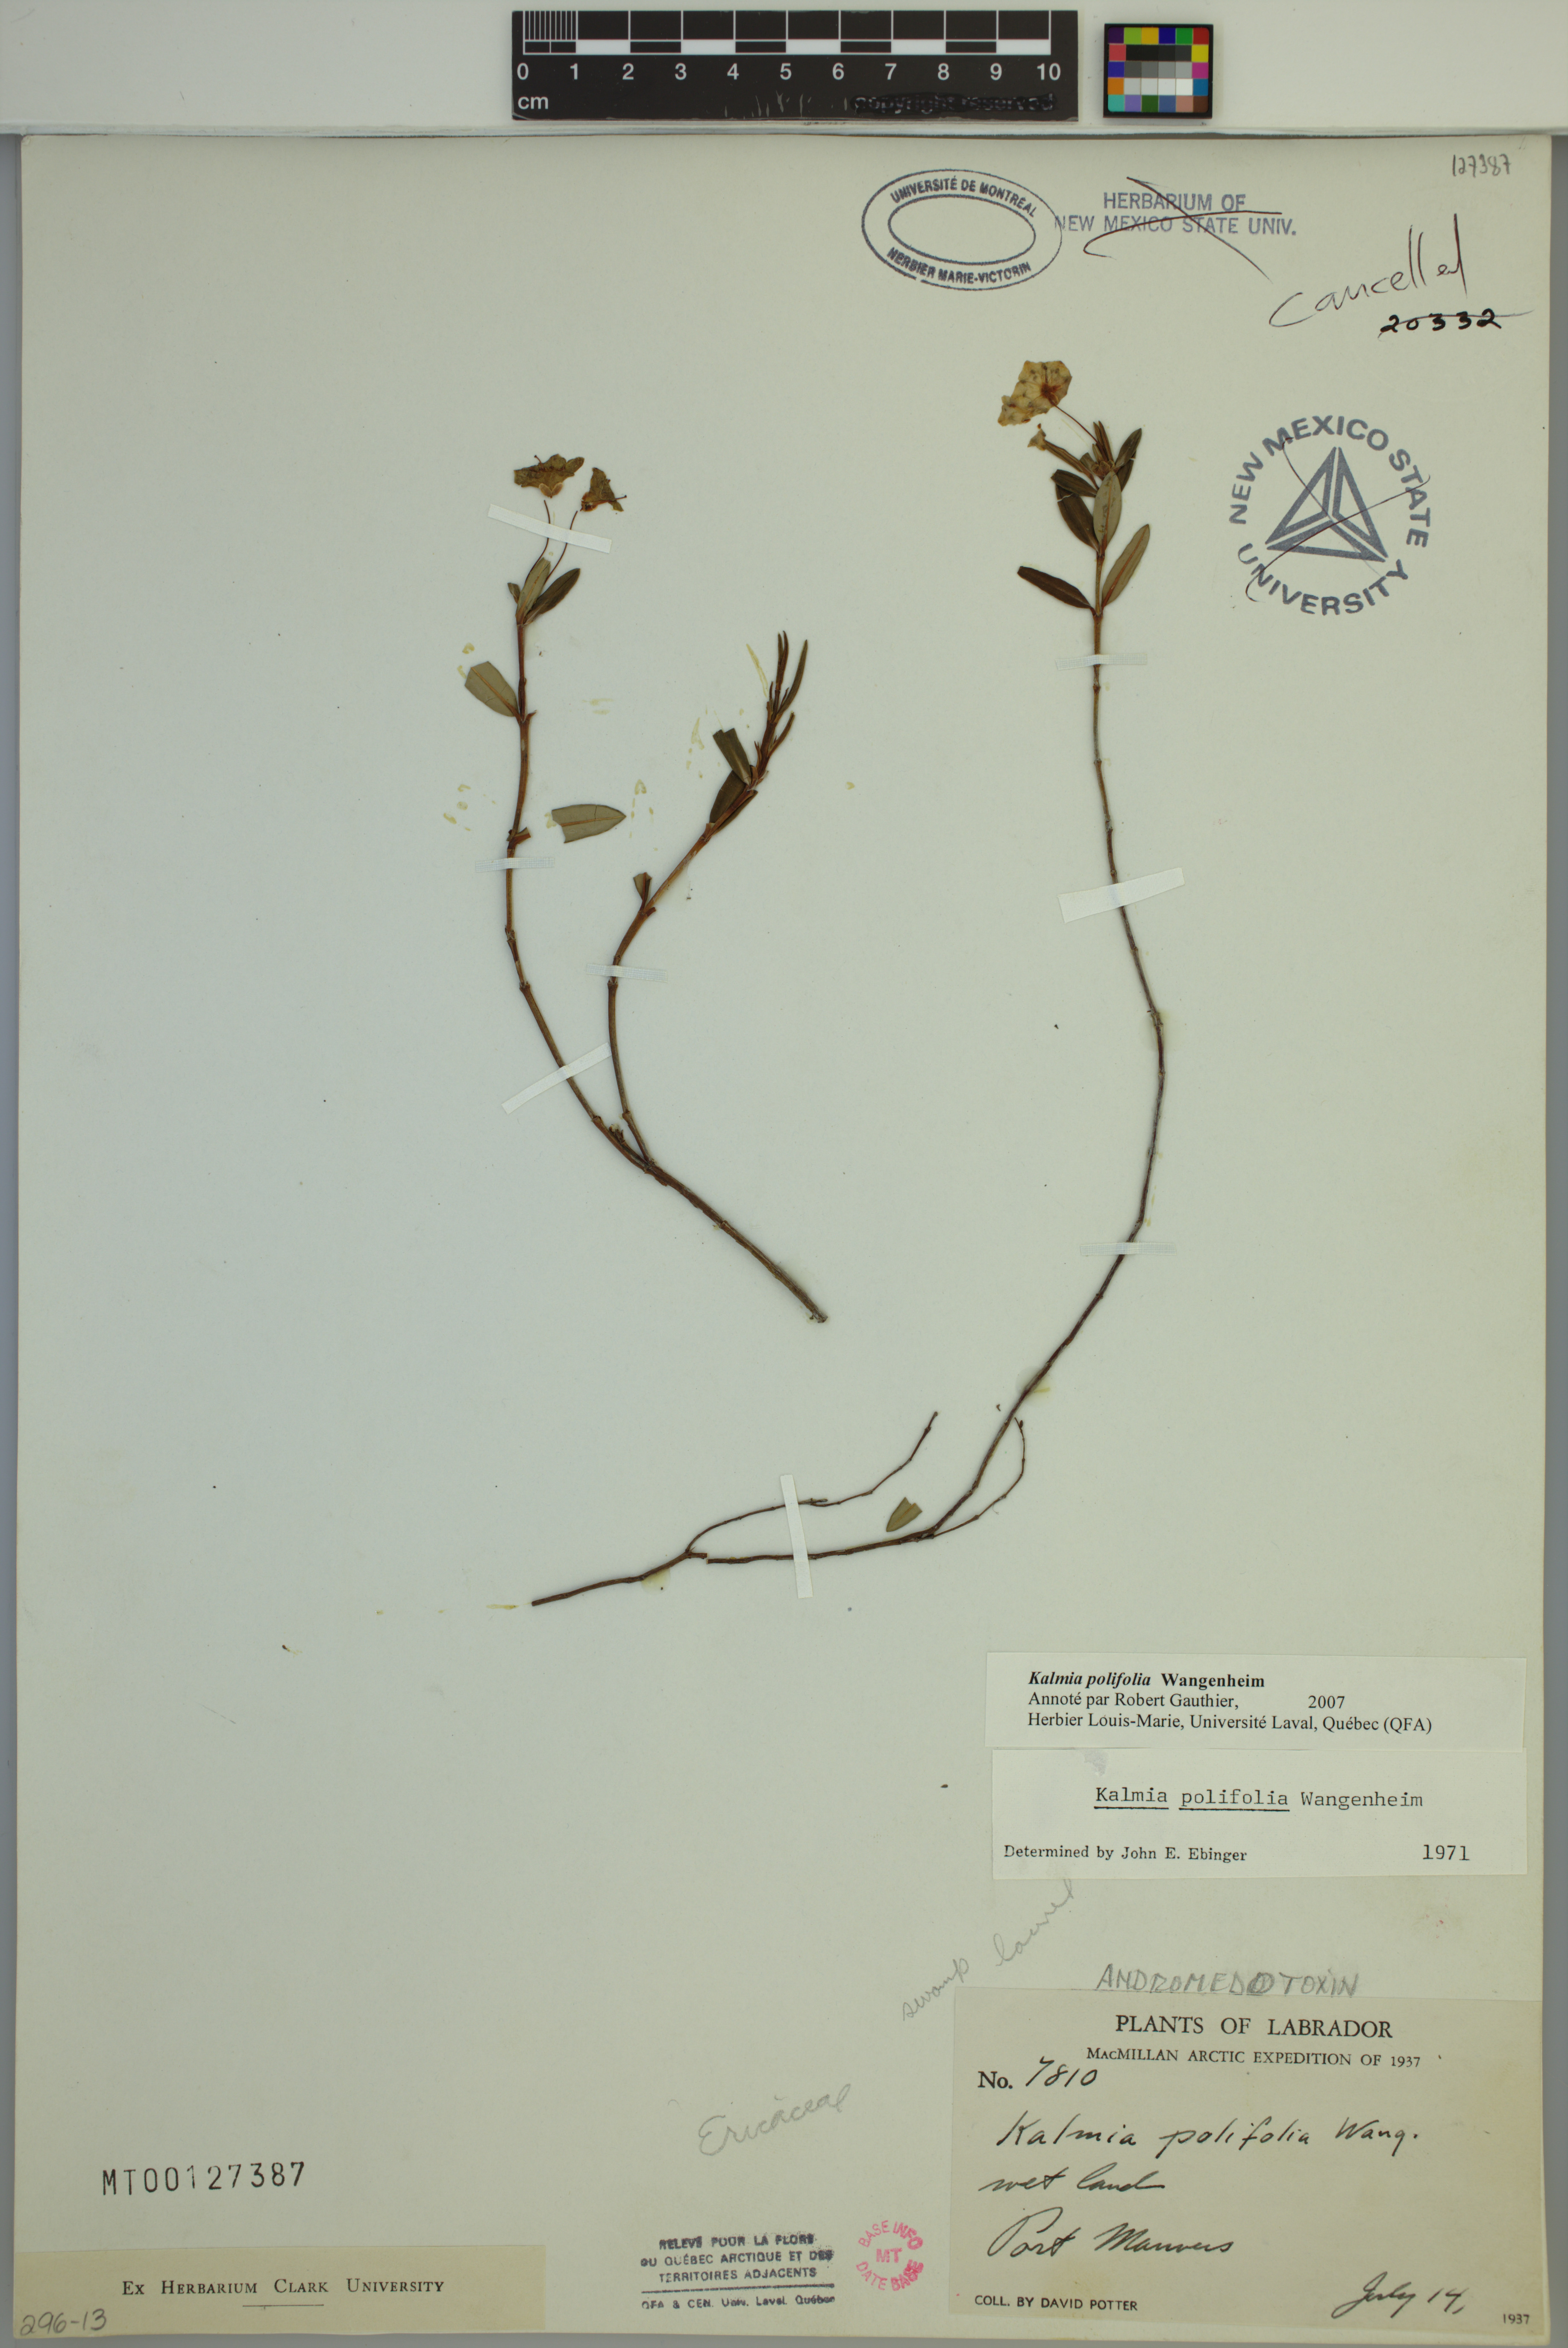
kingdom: Plantae
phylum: Tracheophyta
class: Magnoliopsida
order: Ericales
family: Ericaceae
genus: Kalmia
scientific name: Kalmia polifolia
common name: Bog-laurel
